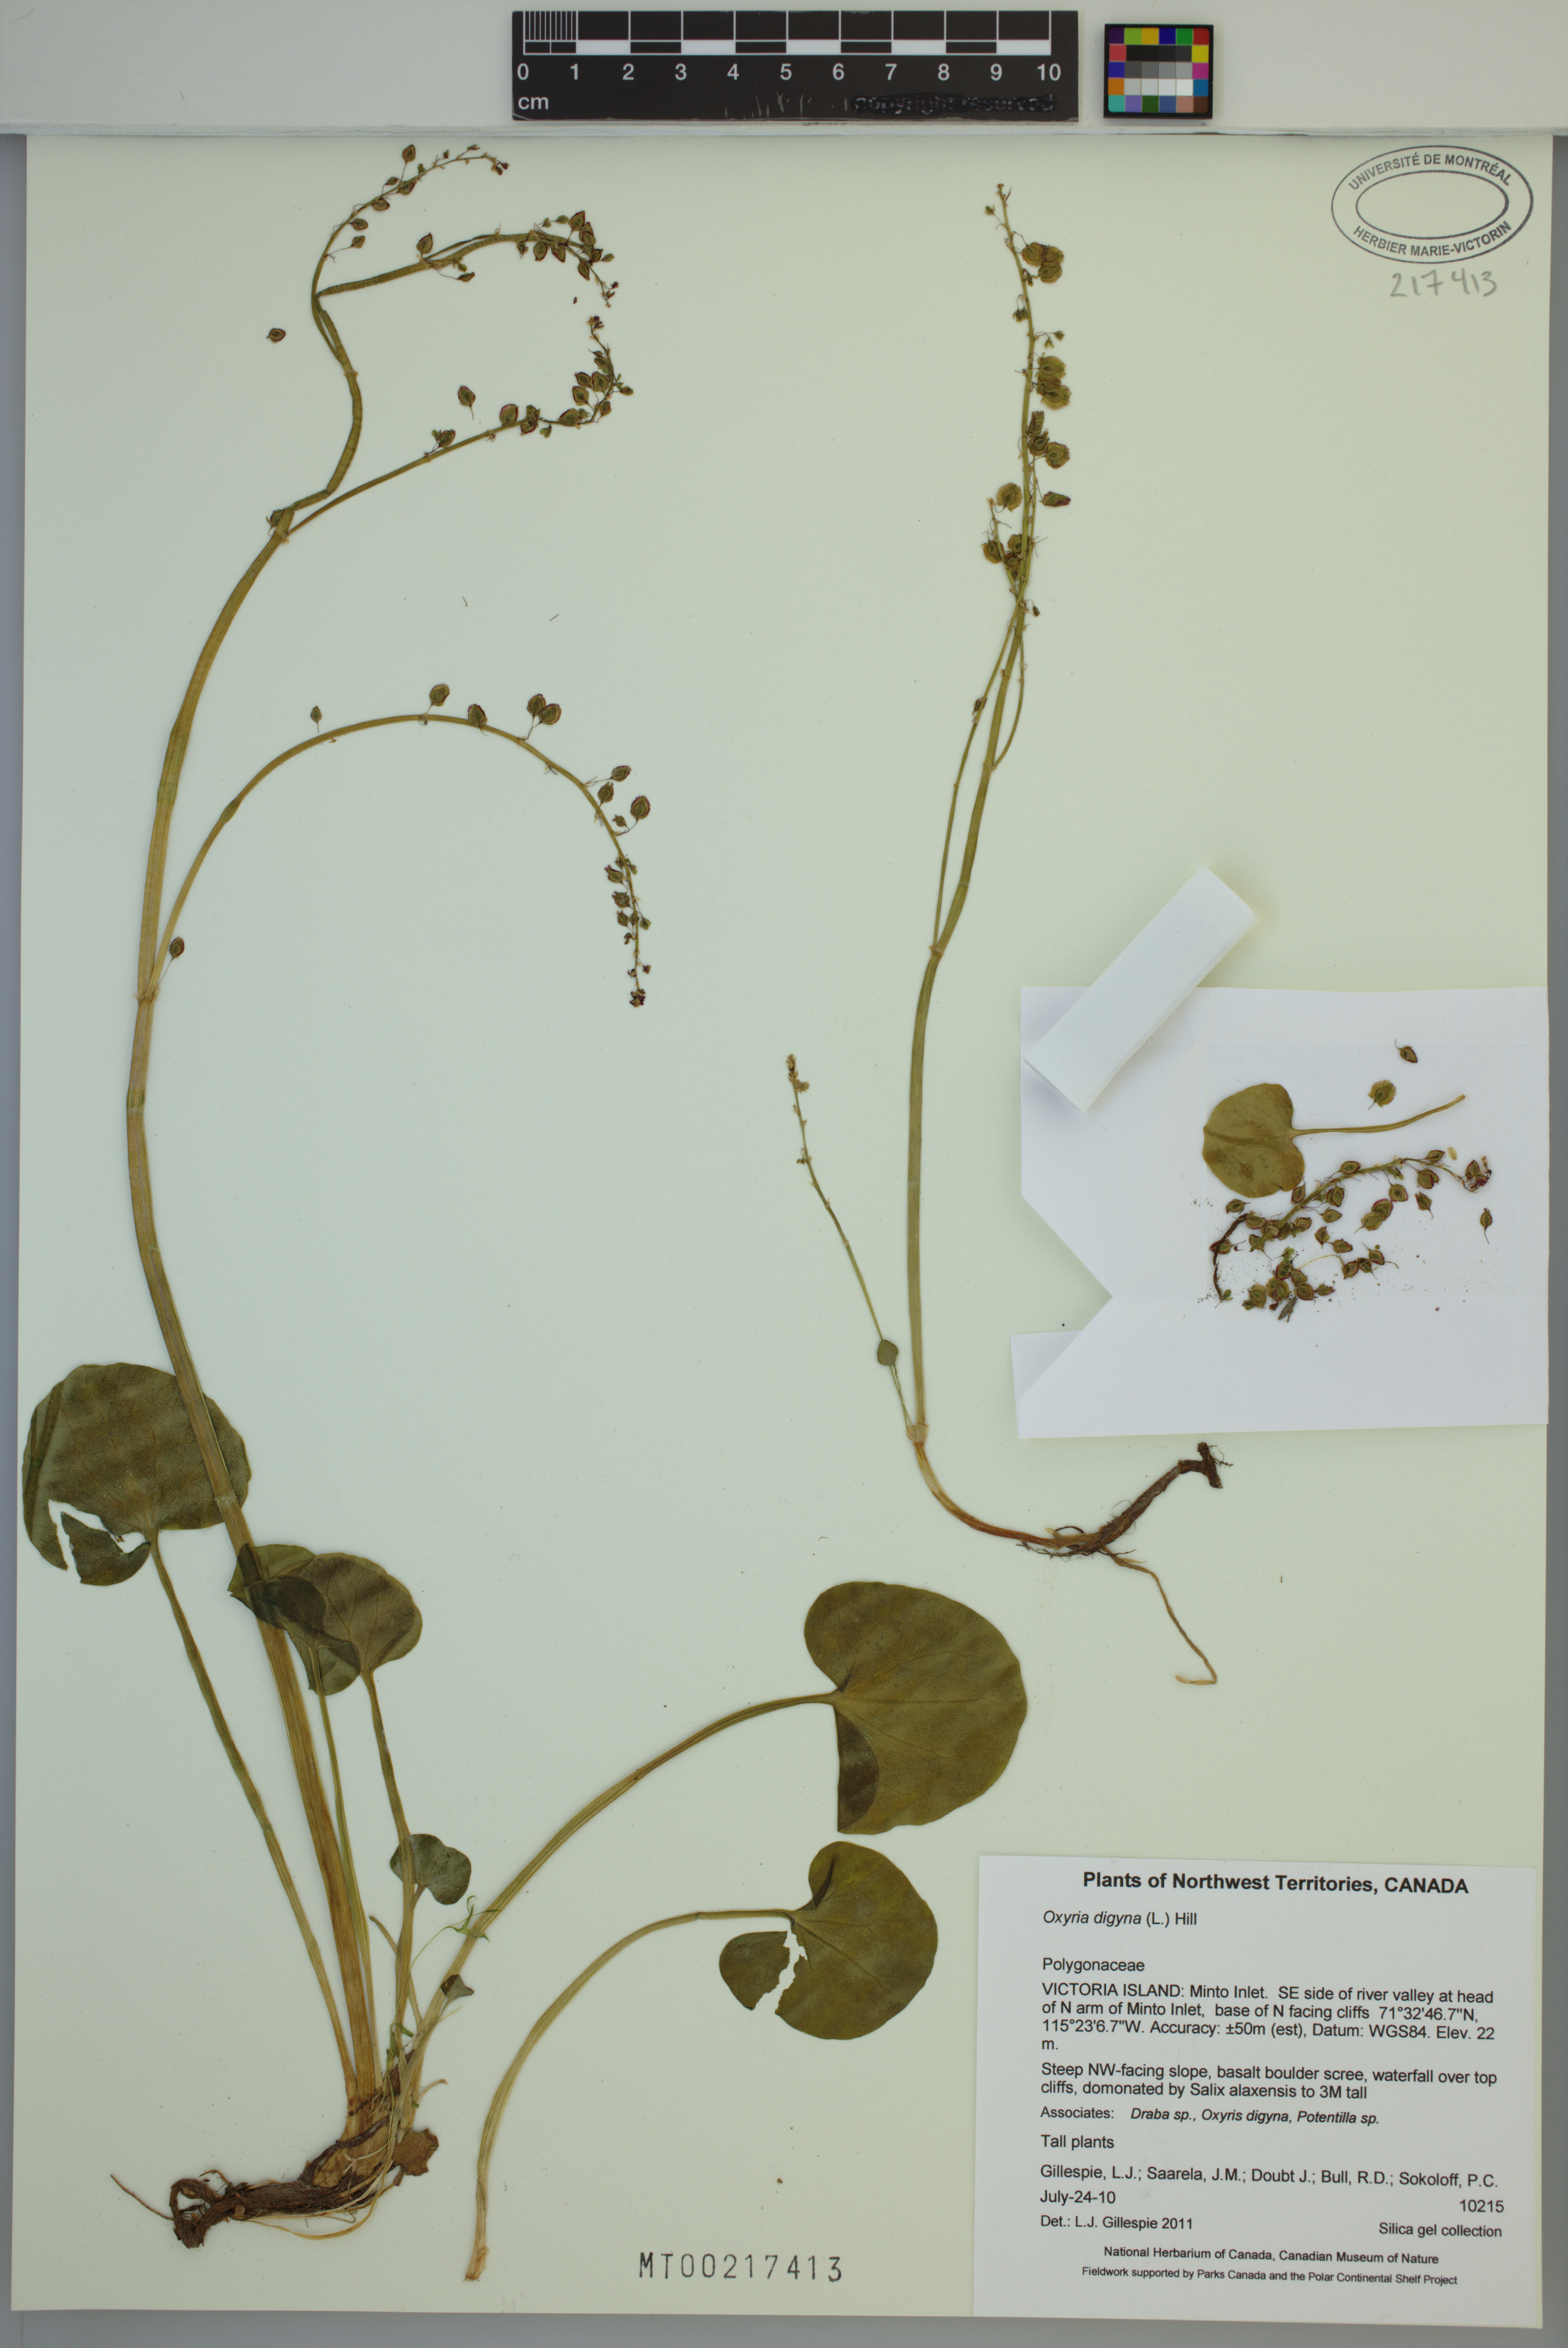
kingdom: Plantae
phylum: Tracheophyta
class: Magnoliopsida
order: Caryophyllales
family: Polygonaceae
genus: Oxyria
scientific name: Oxyria digyna
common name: Alpine mountain-sorrel
